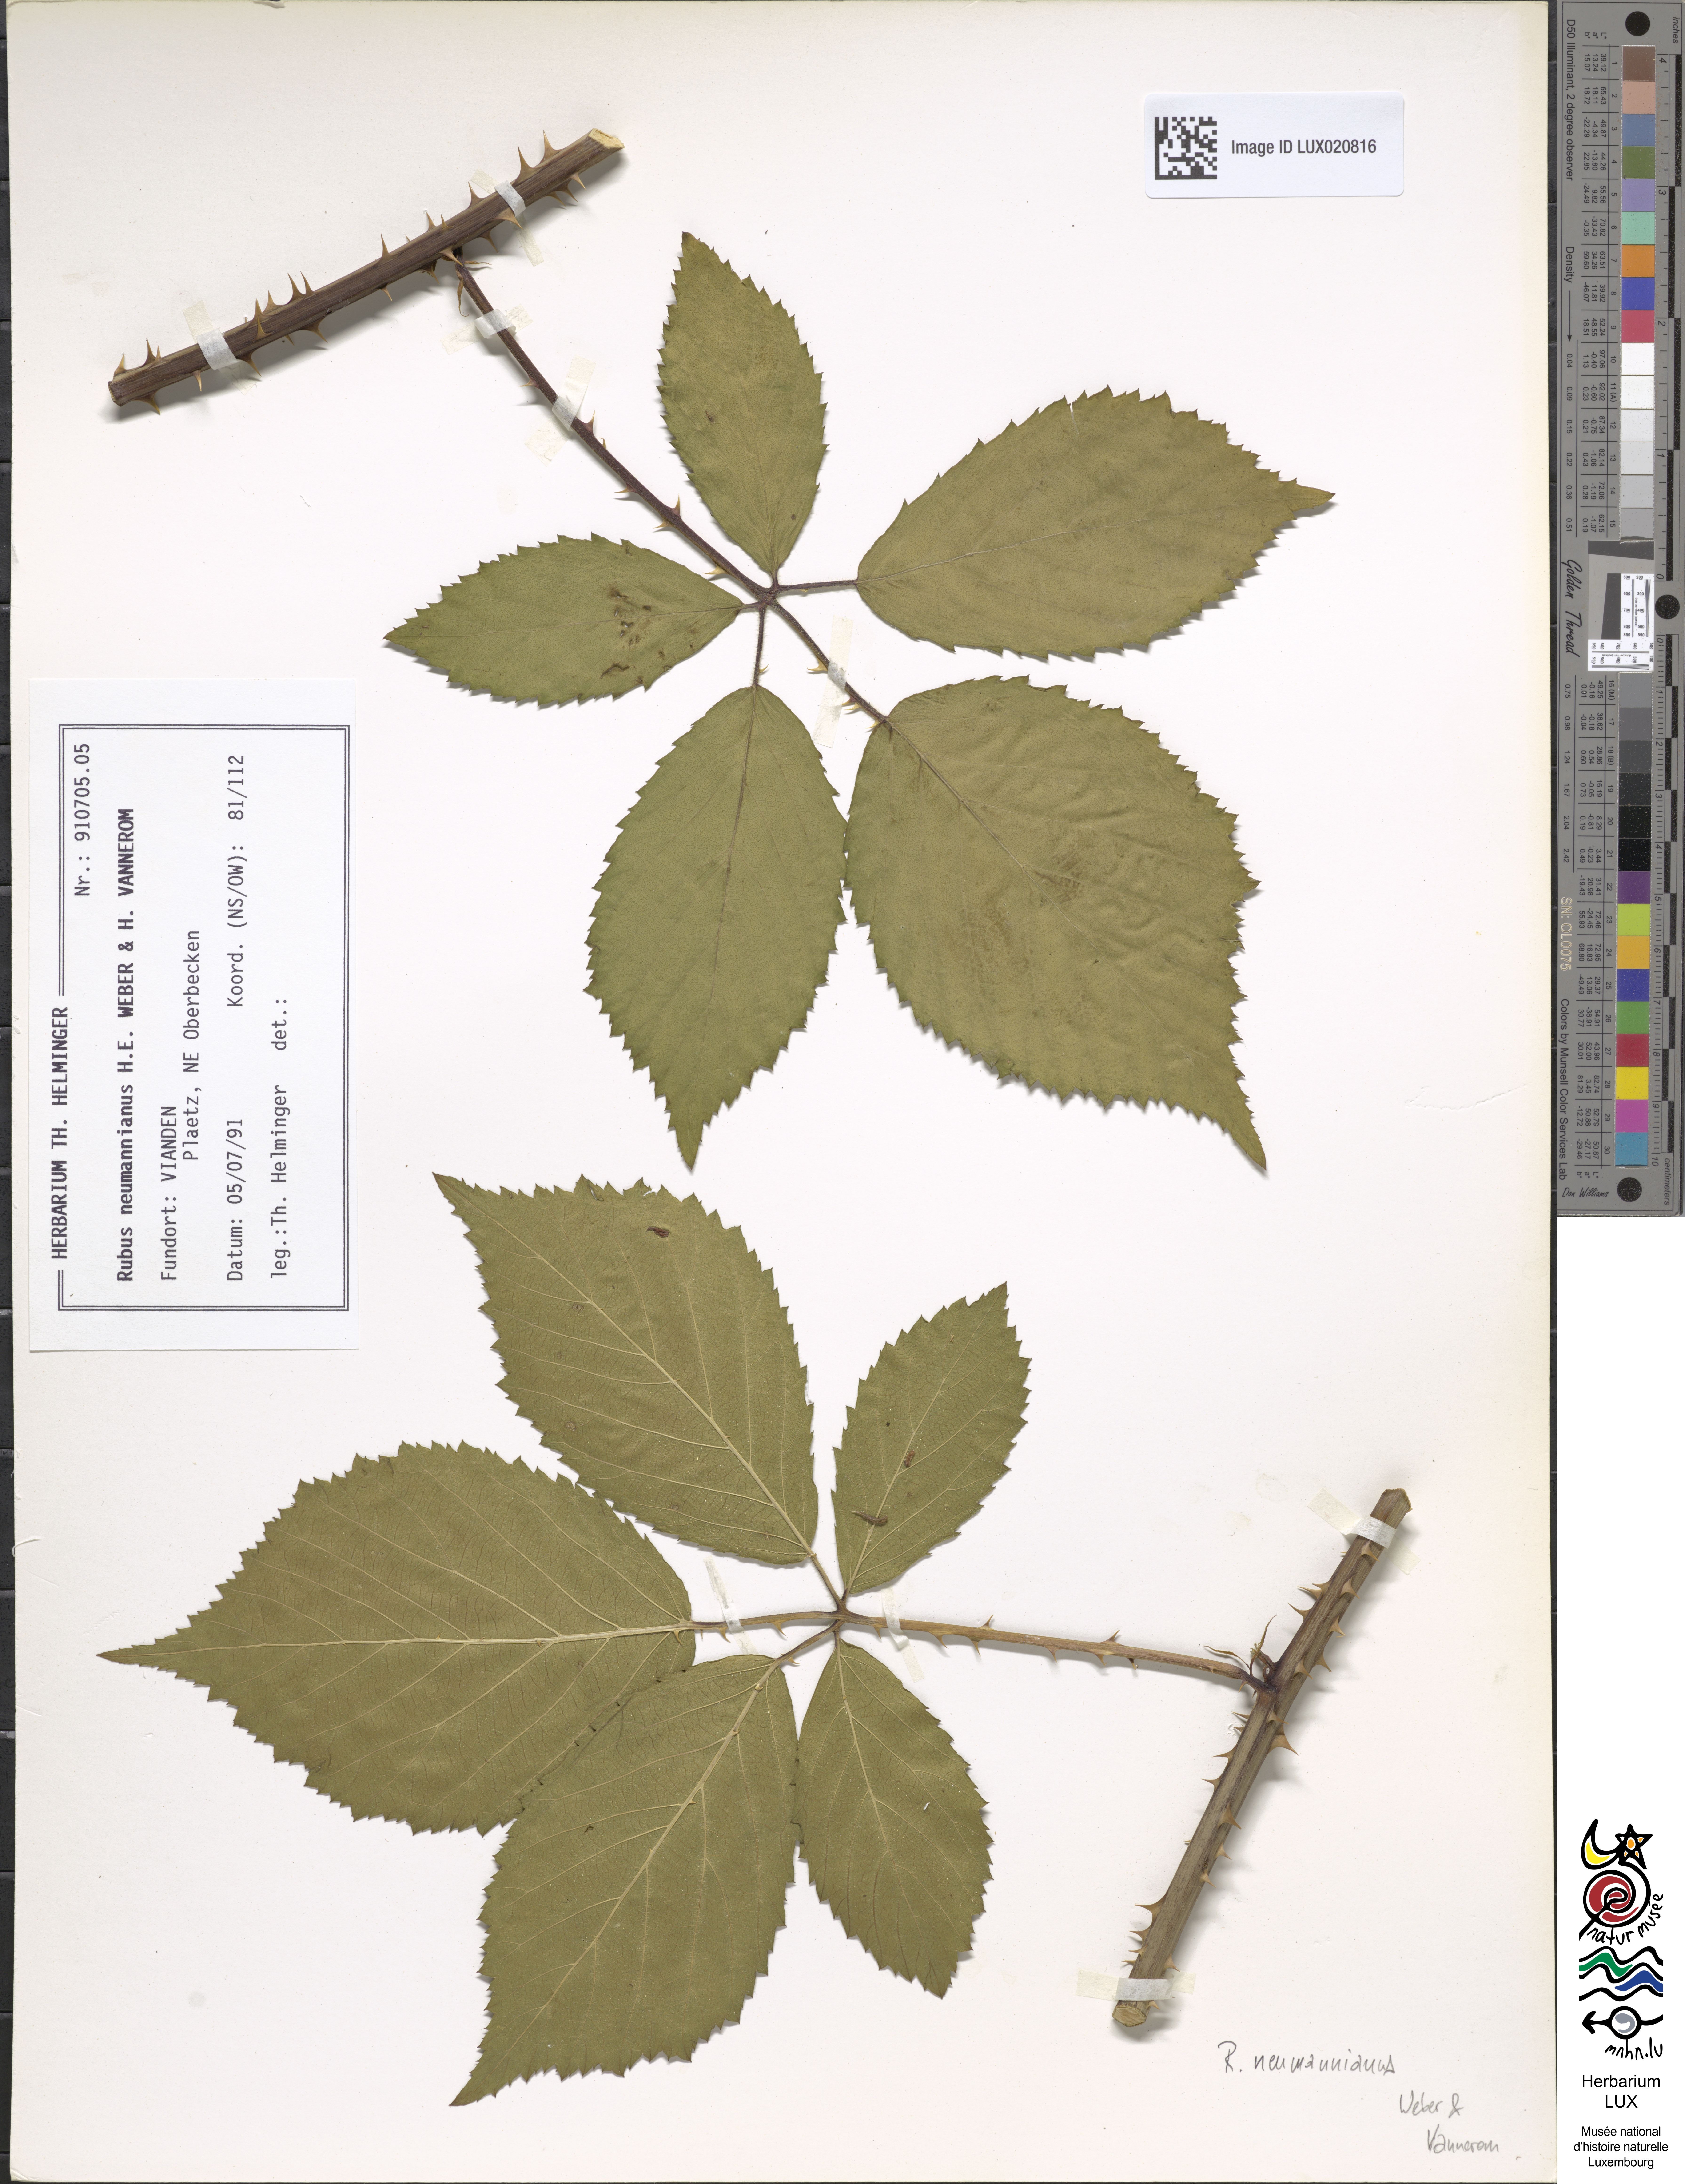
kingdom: Plantae
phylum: Tracheophyta
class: Magnoliopsida
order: Rosales
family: Rosaceae
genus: Rubus
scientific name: Rubus favonii
